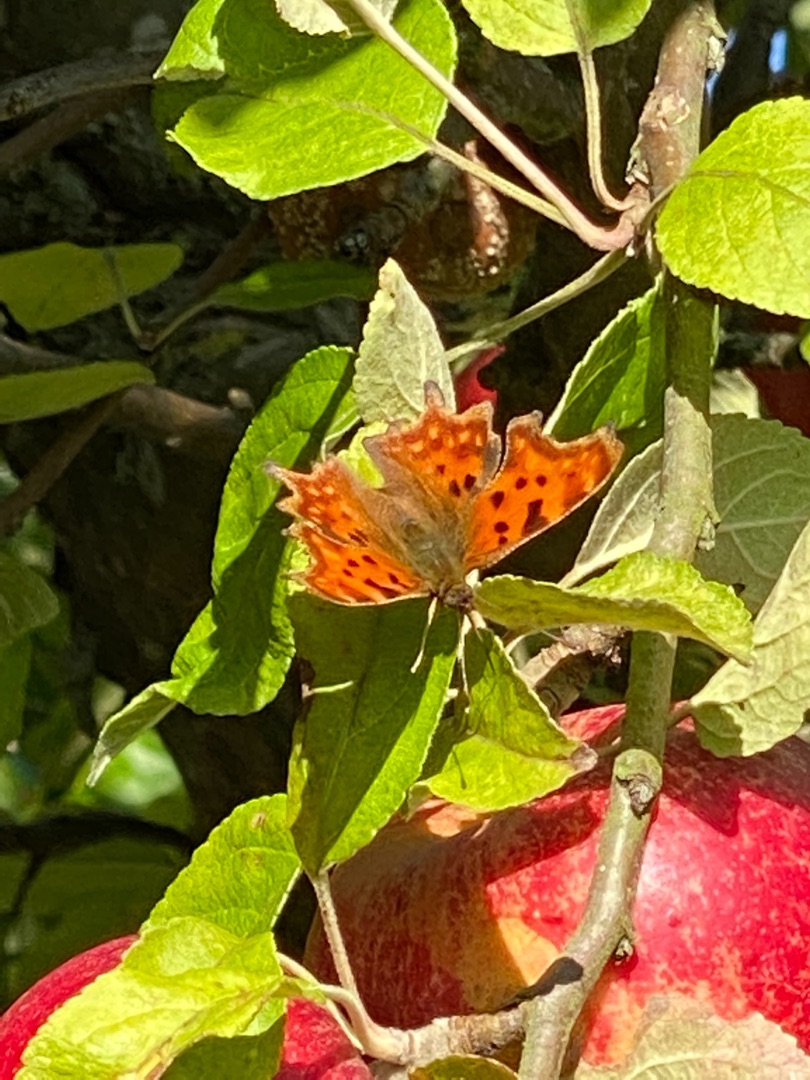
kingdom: Animalia
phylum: Arthropoda
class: Insecta
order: Lepidoptera
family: Nymphalidae
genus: Polygonia
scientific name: Polygonia c-album
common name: Det hvide C
